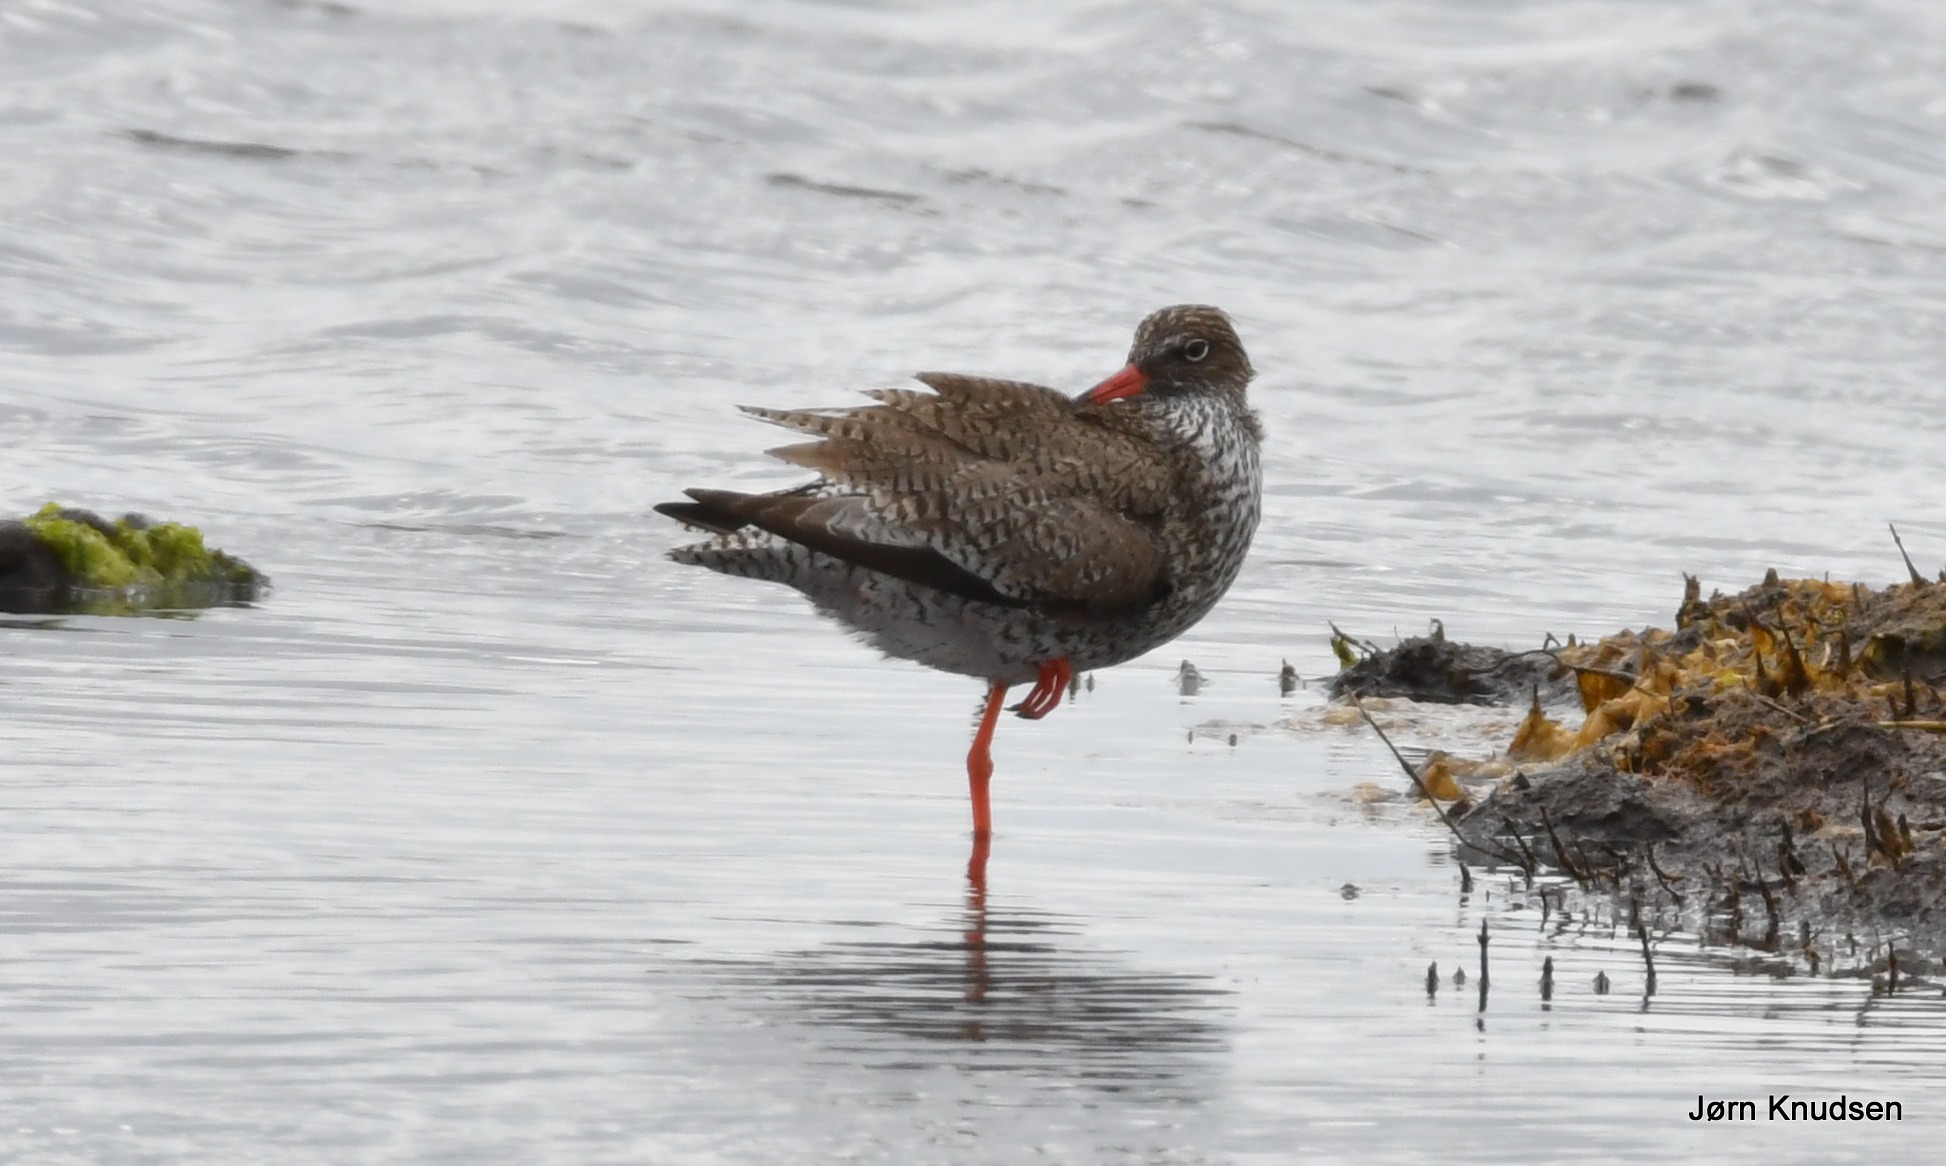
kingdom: Animalia
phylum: Chordata
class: Aves
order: Charadriiformes
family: Scolopacidae
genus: Tringa
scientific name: Tringa totanus
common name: Rødben
